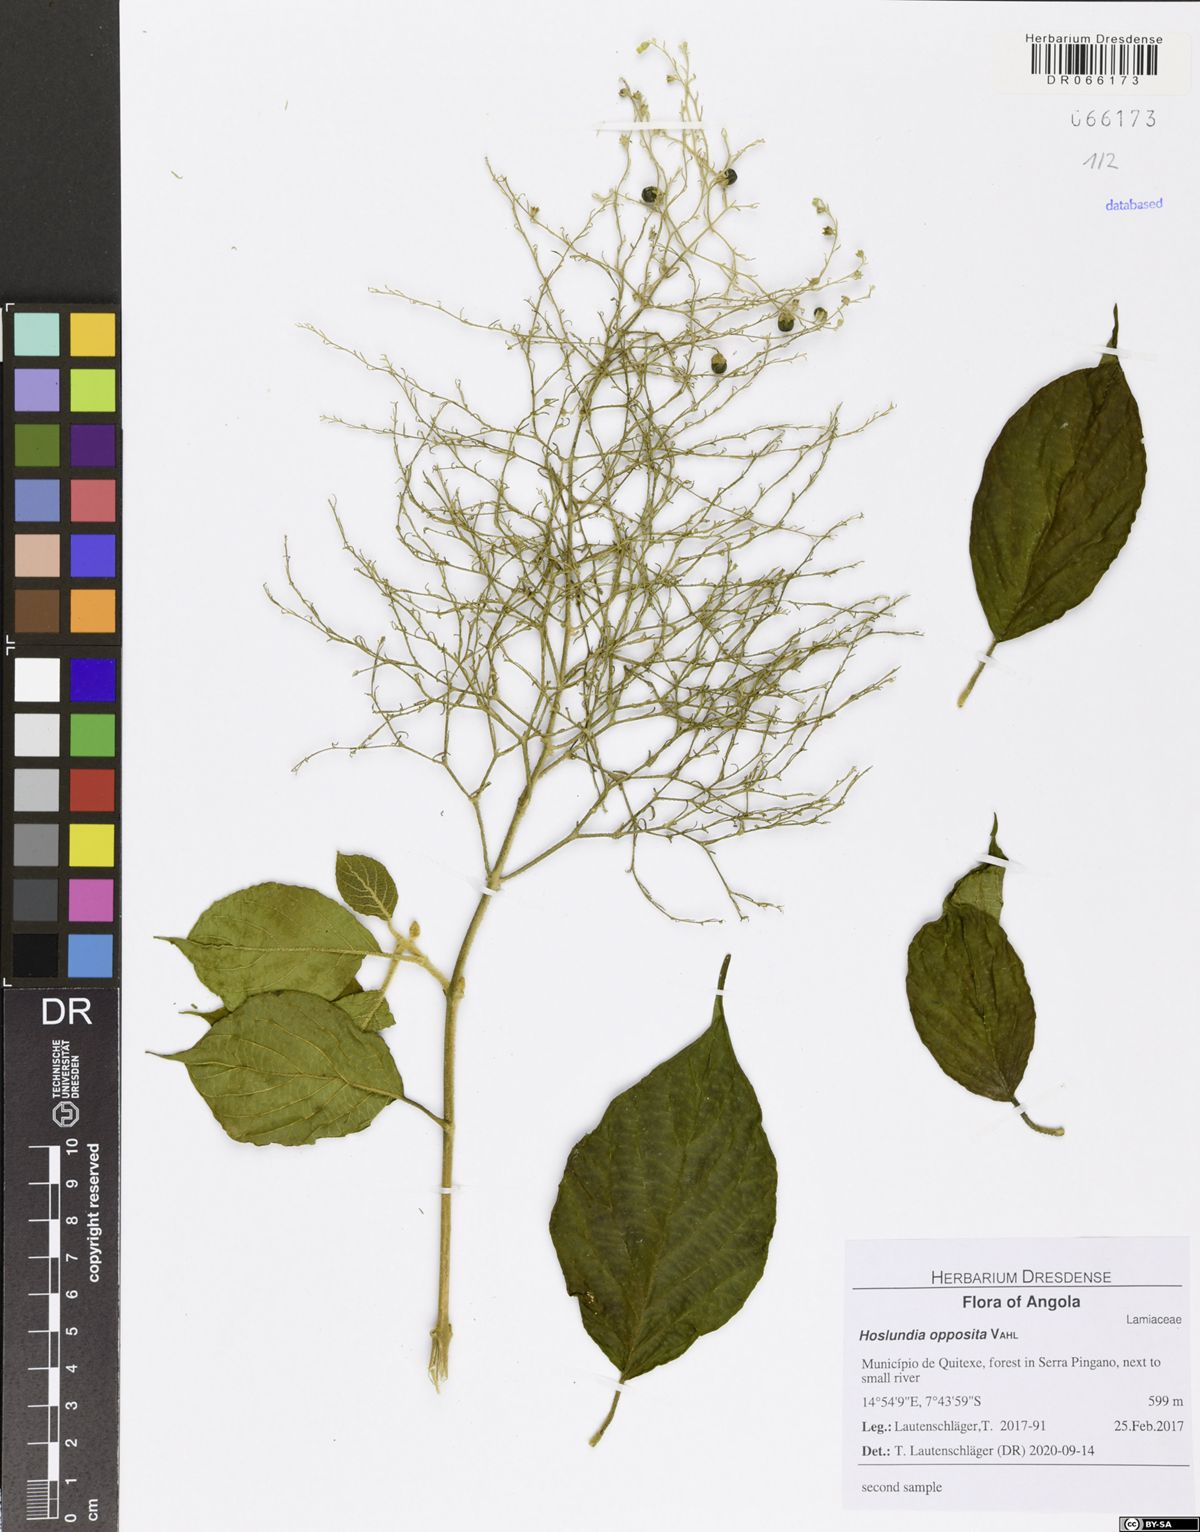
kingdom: Plantae
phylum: Tracheophyta
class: Magnoliopsida
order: Lamiales
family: Lamiaceae
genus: Hoslundia
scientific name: Hoslundia opposita
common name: Kamyuye
